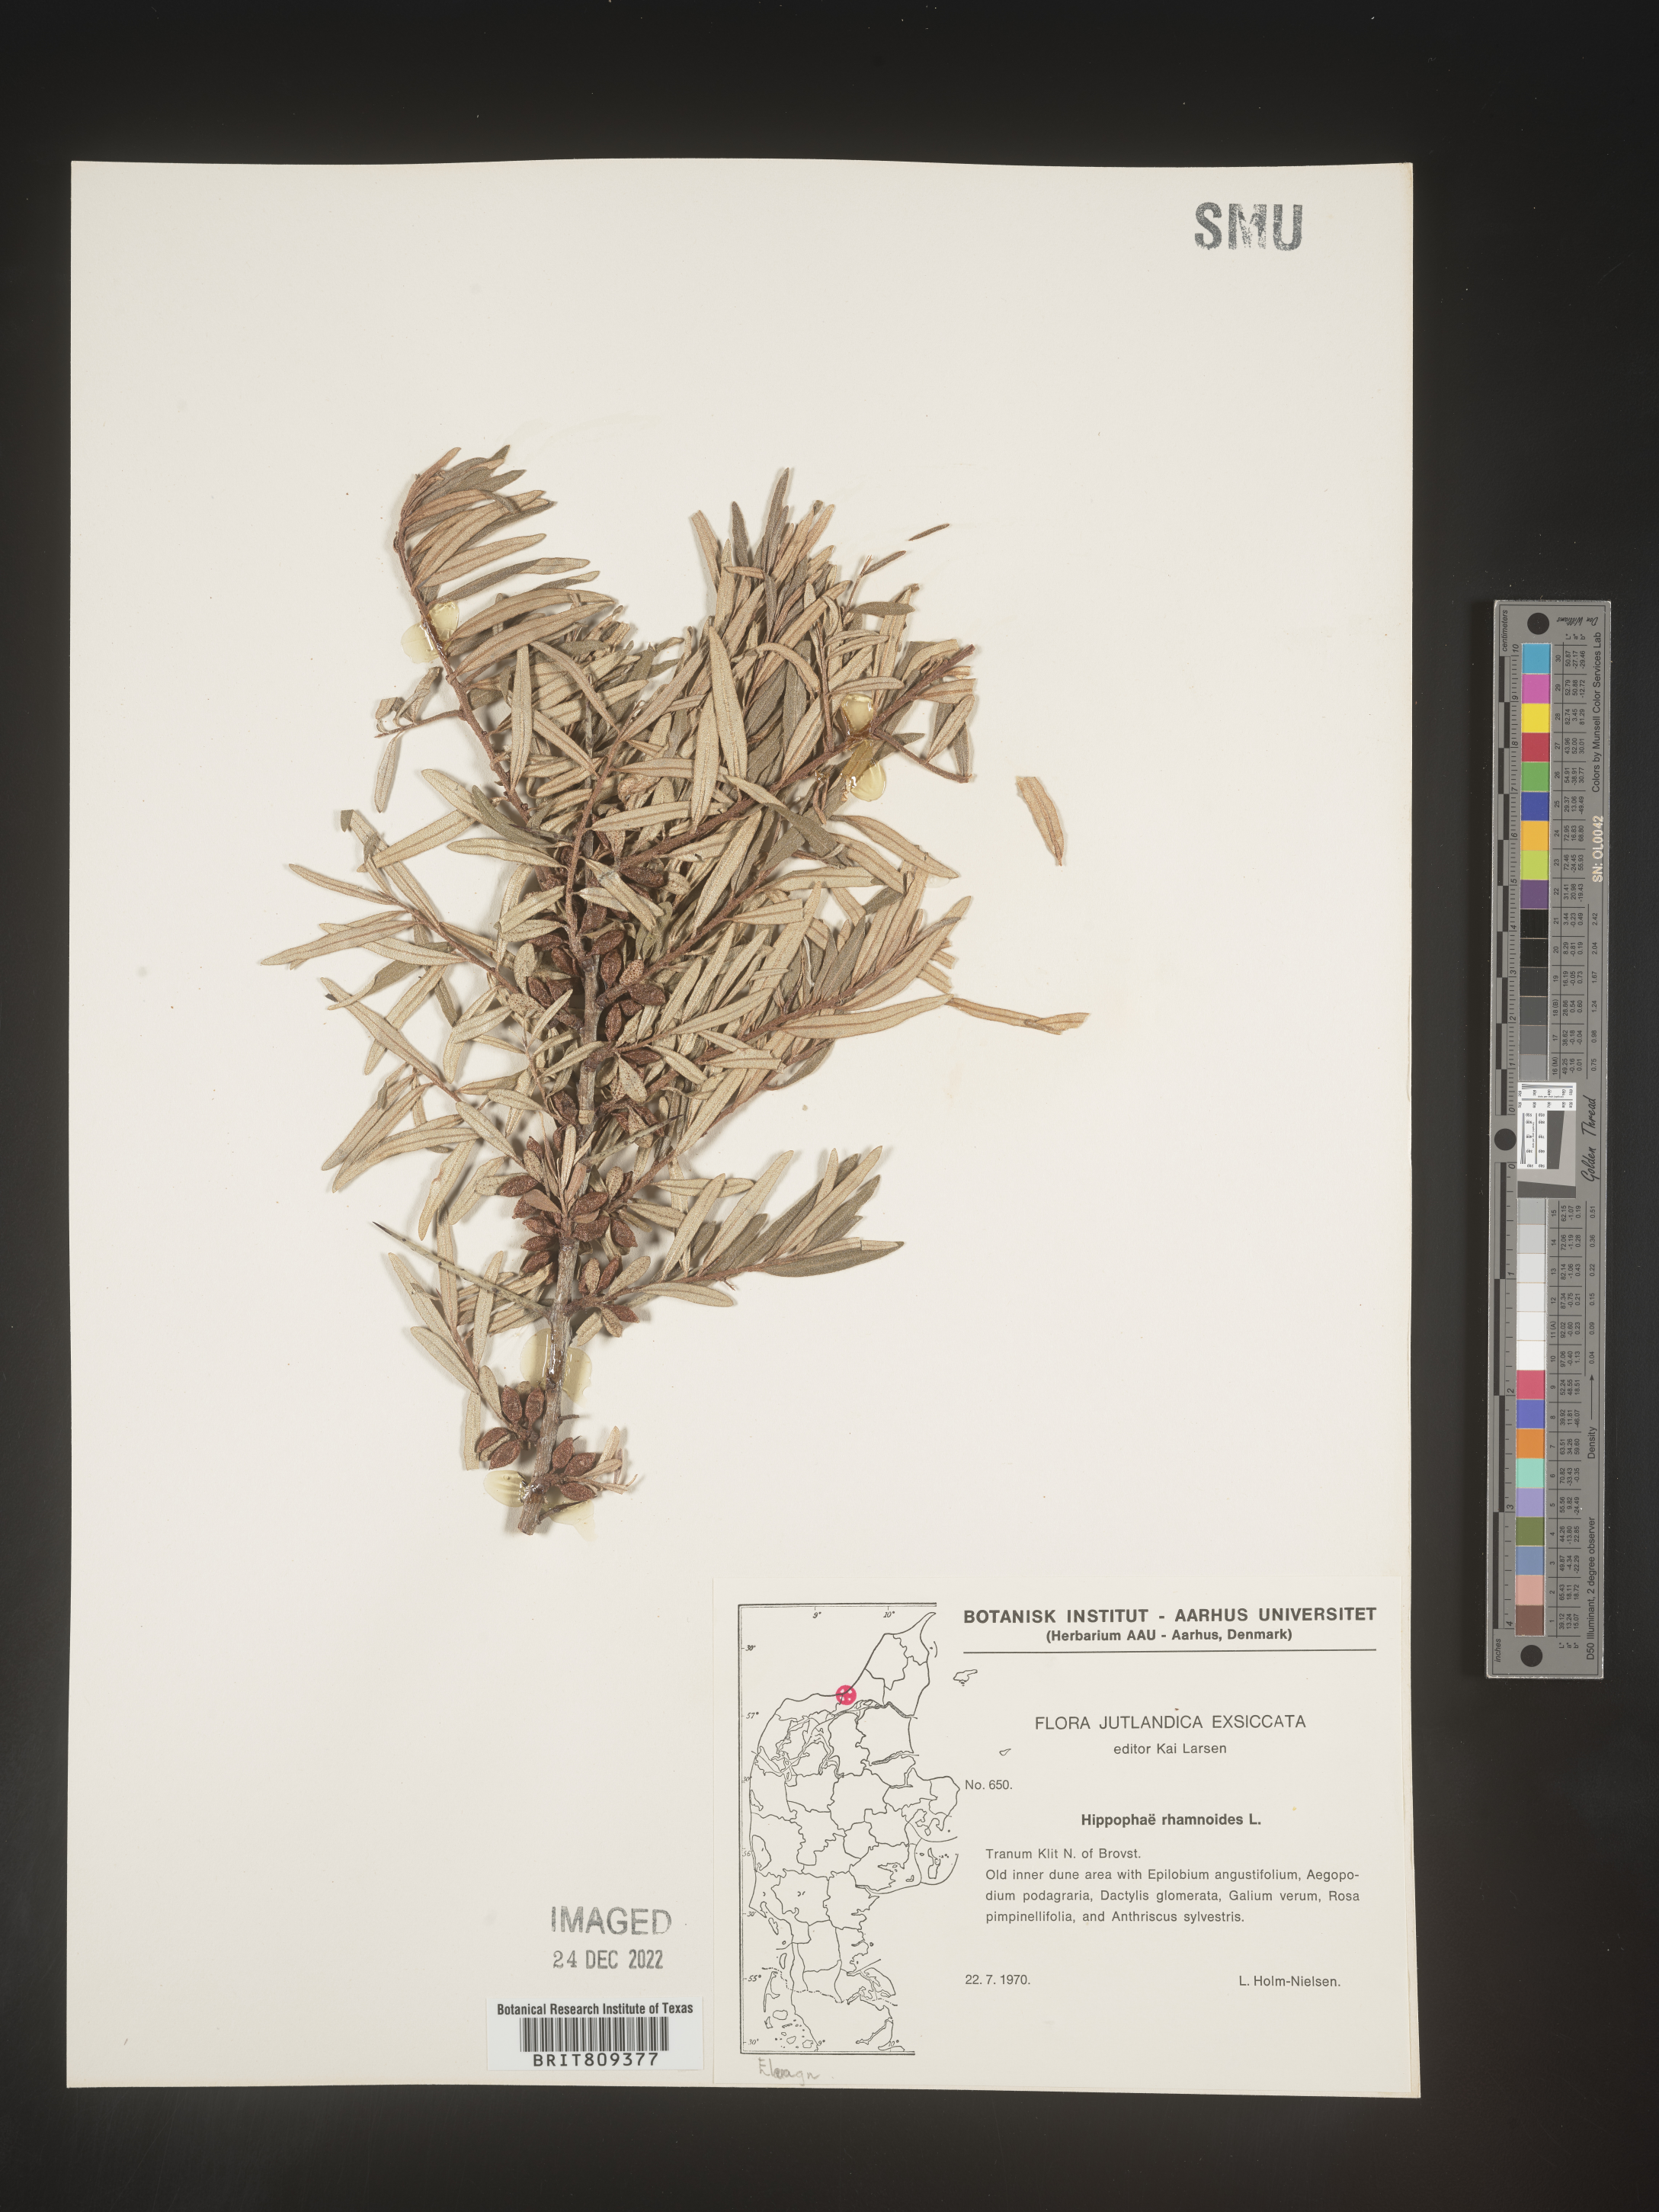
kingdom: Plantae
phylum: Tracheophyta
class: Magnoliopsida
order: Rosales
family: Elaeagnaceae
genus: Hippophae
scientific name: Hippophae
